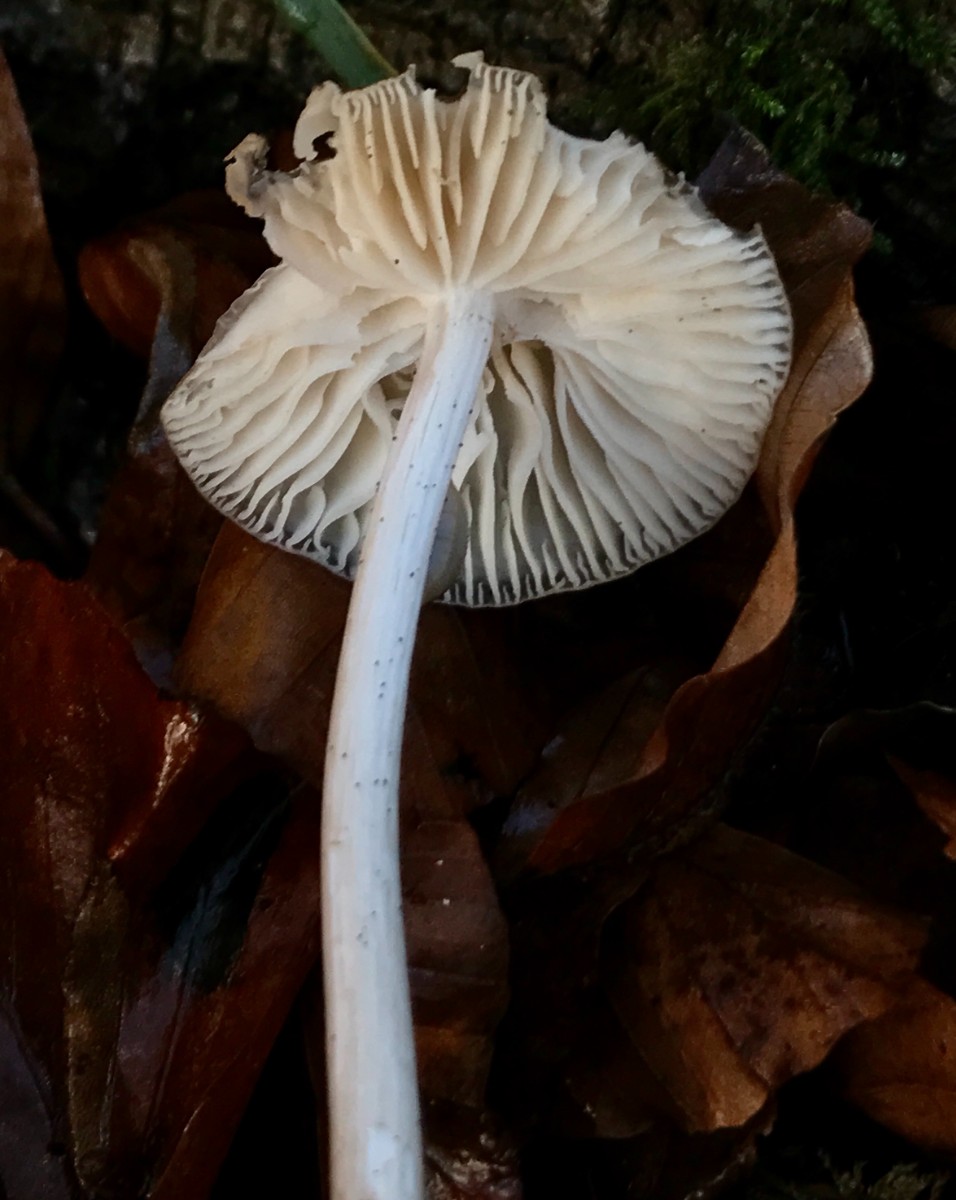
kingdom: Fungi
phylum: Basidiomycota
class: Agaricomycetes
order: Agaricales
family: Physalacriaceae
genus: Hymenopellis
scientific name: Hymenopellis radicata
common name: almindelig pælerodshat
